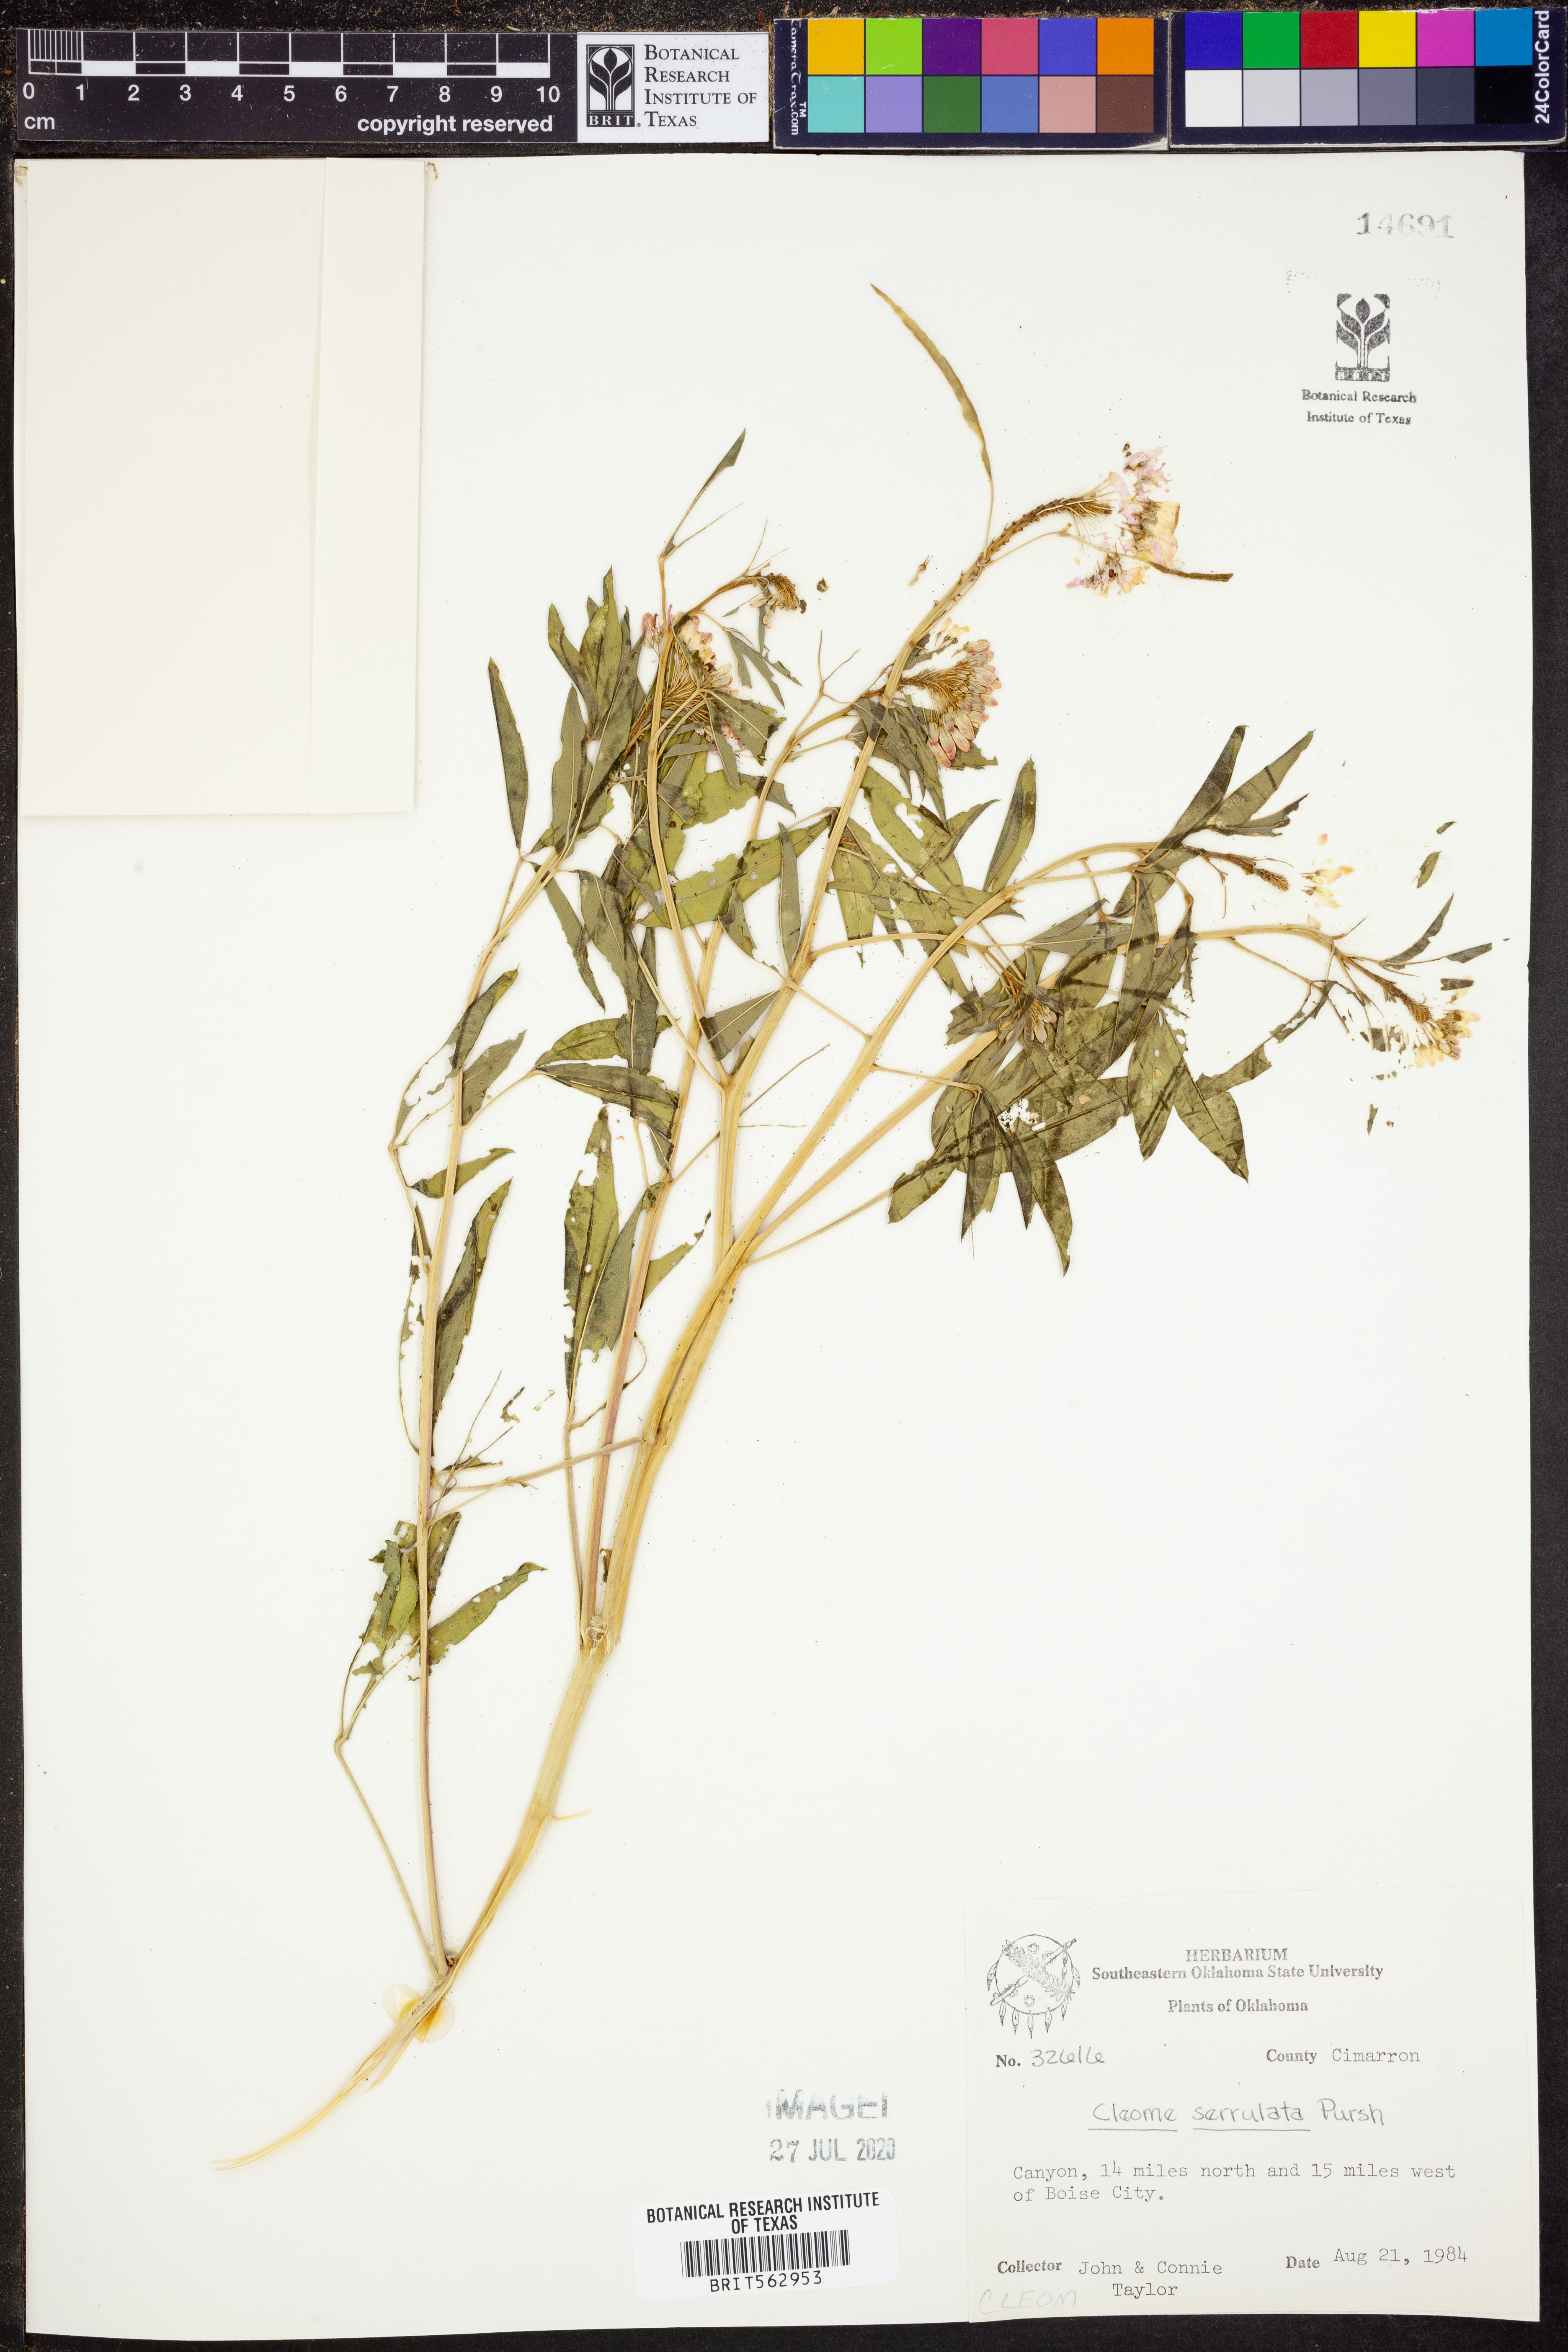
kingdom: Plantae
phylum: Tracheophyta
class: Magnoliopsida
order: Brassicales
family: Cleomaceae
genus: Cleomella
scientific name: Cleomella serrulata
